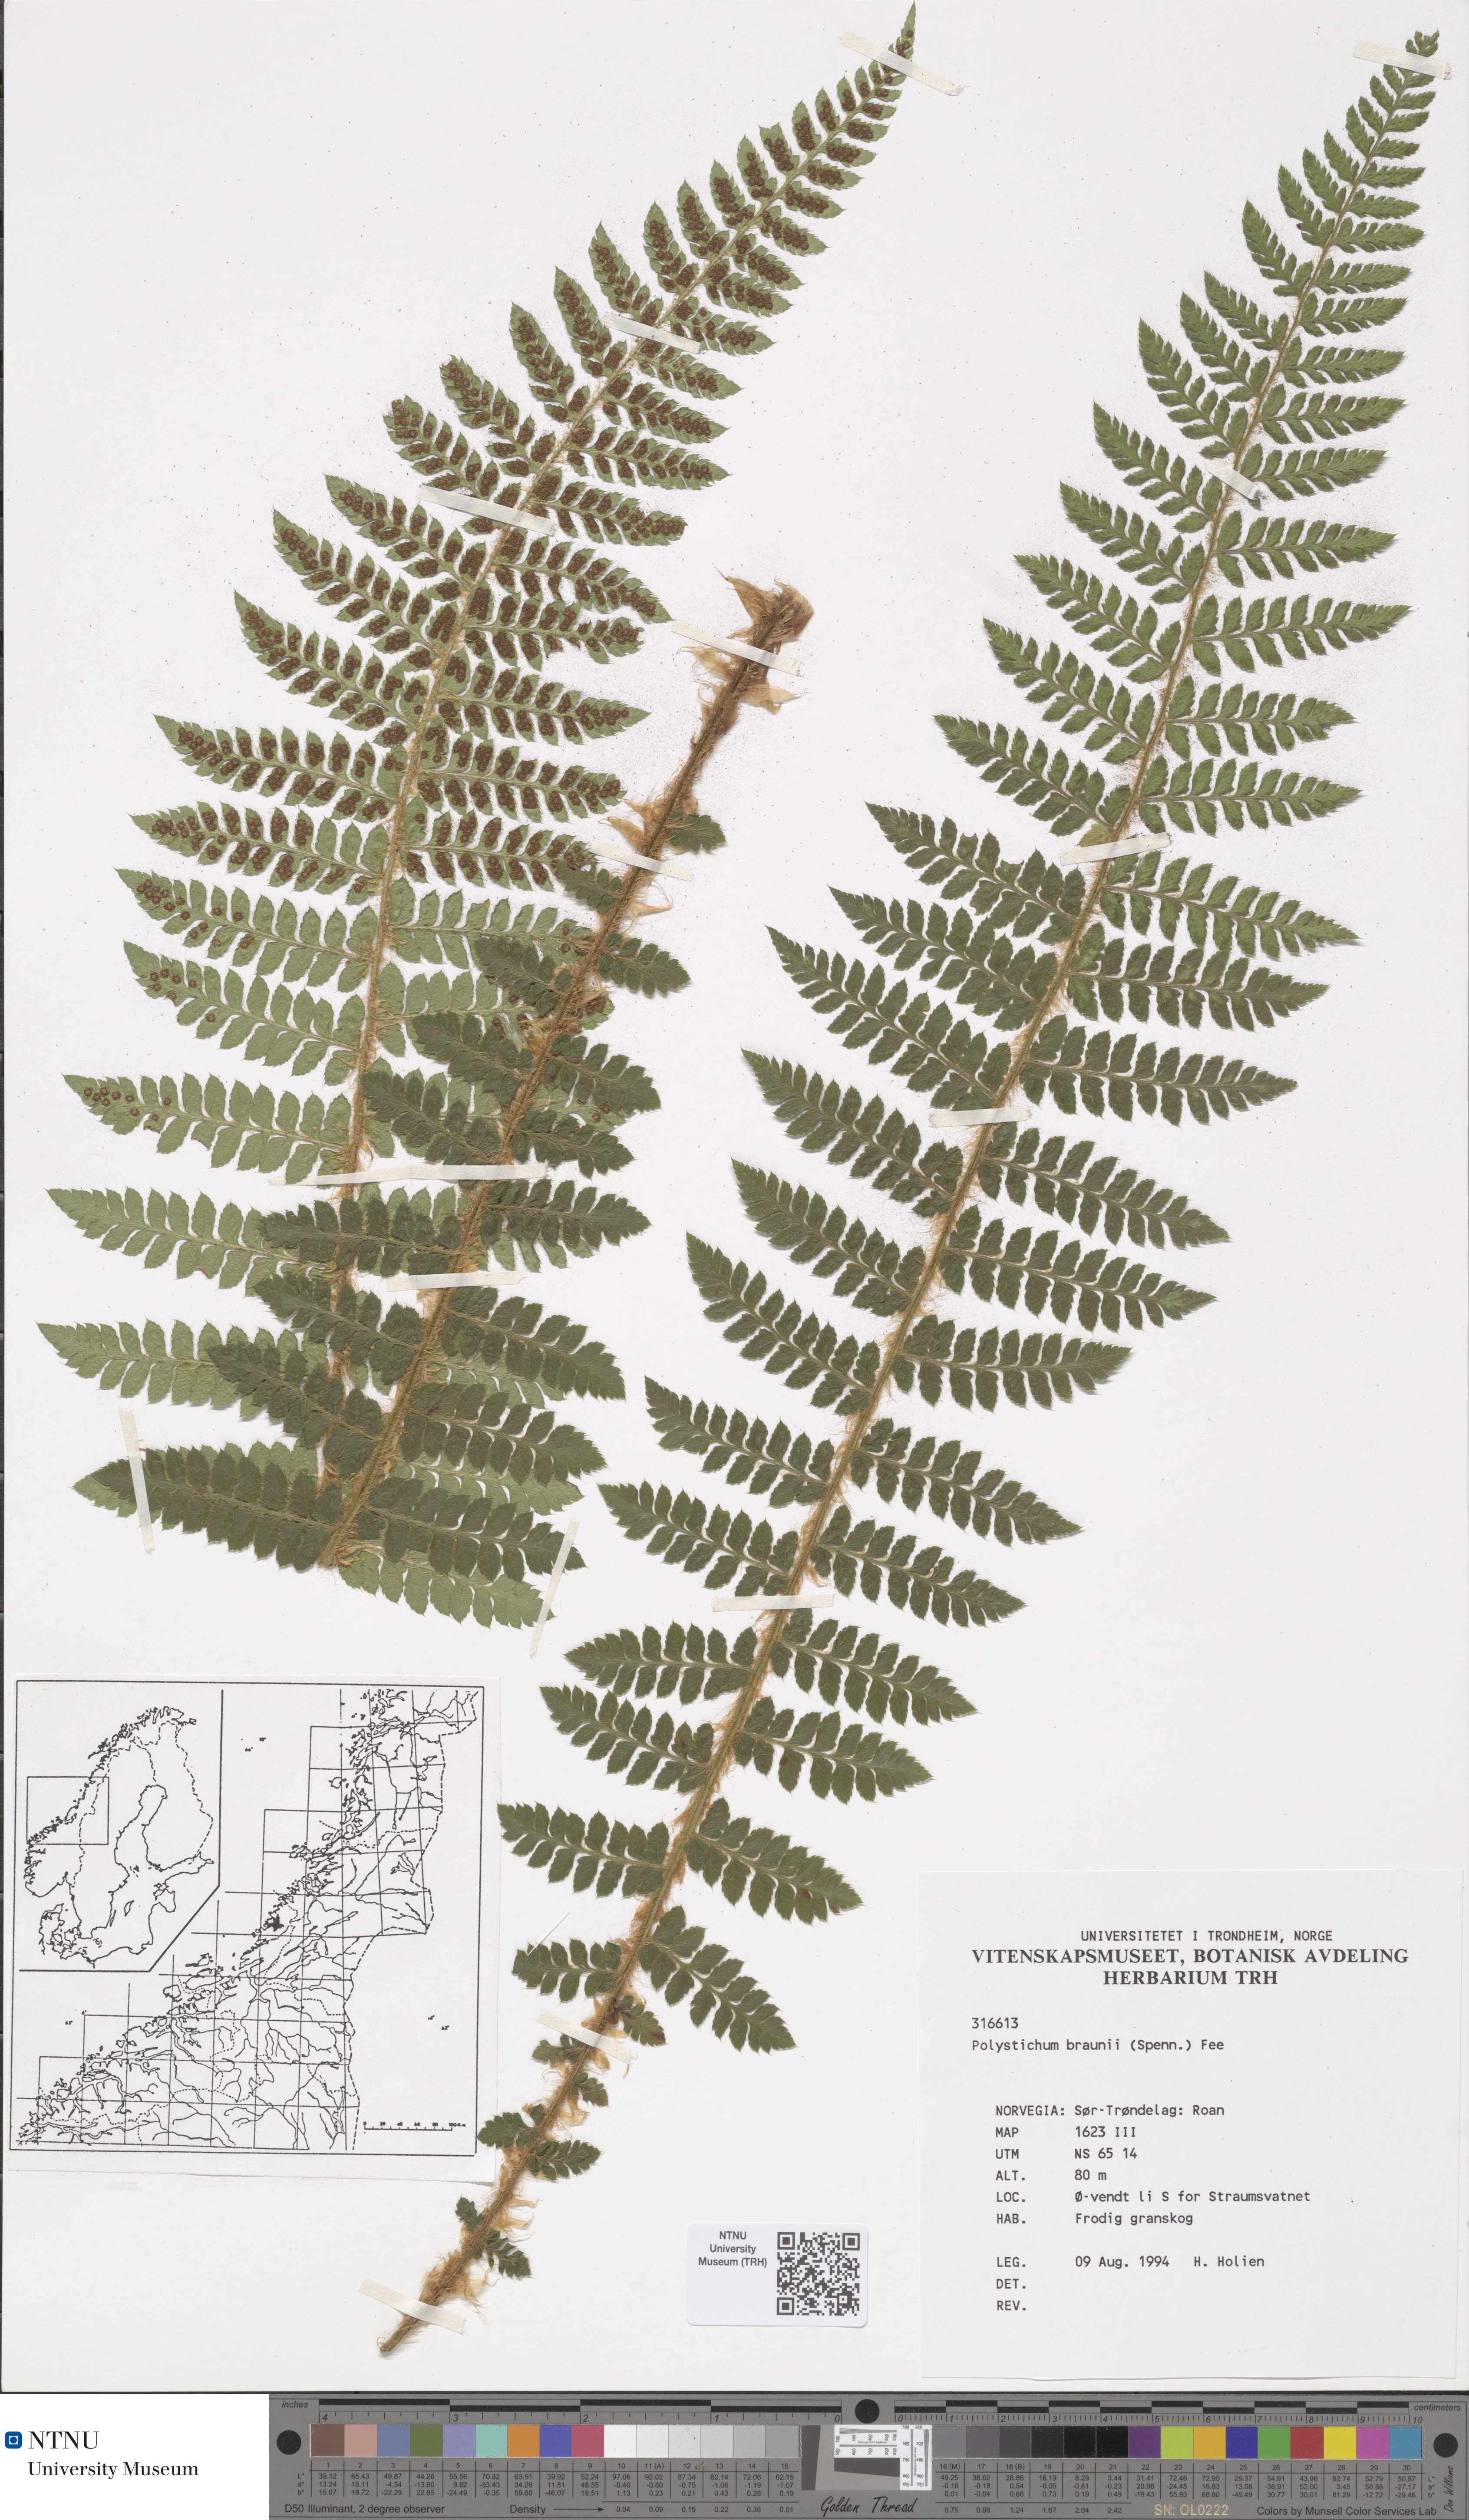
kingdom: Plantae
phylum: Tracheophyta
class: Polypodiopsida
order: Polypodiales
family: Dryopteridaceae
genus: Polystichum
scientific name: Polystichum braunii
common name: Braun's holly fern
